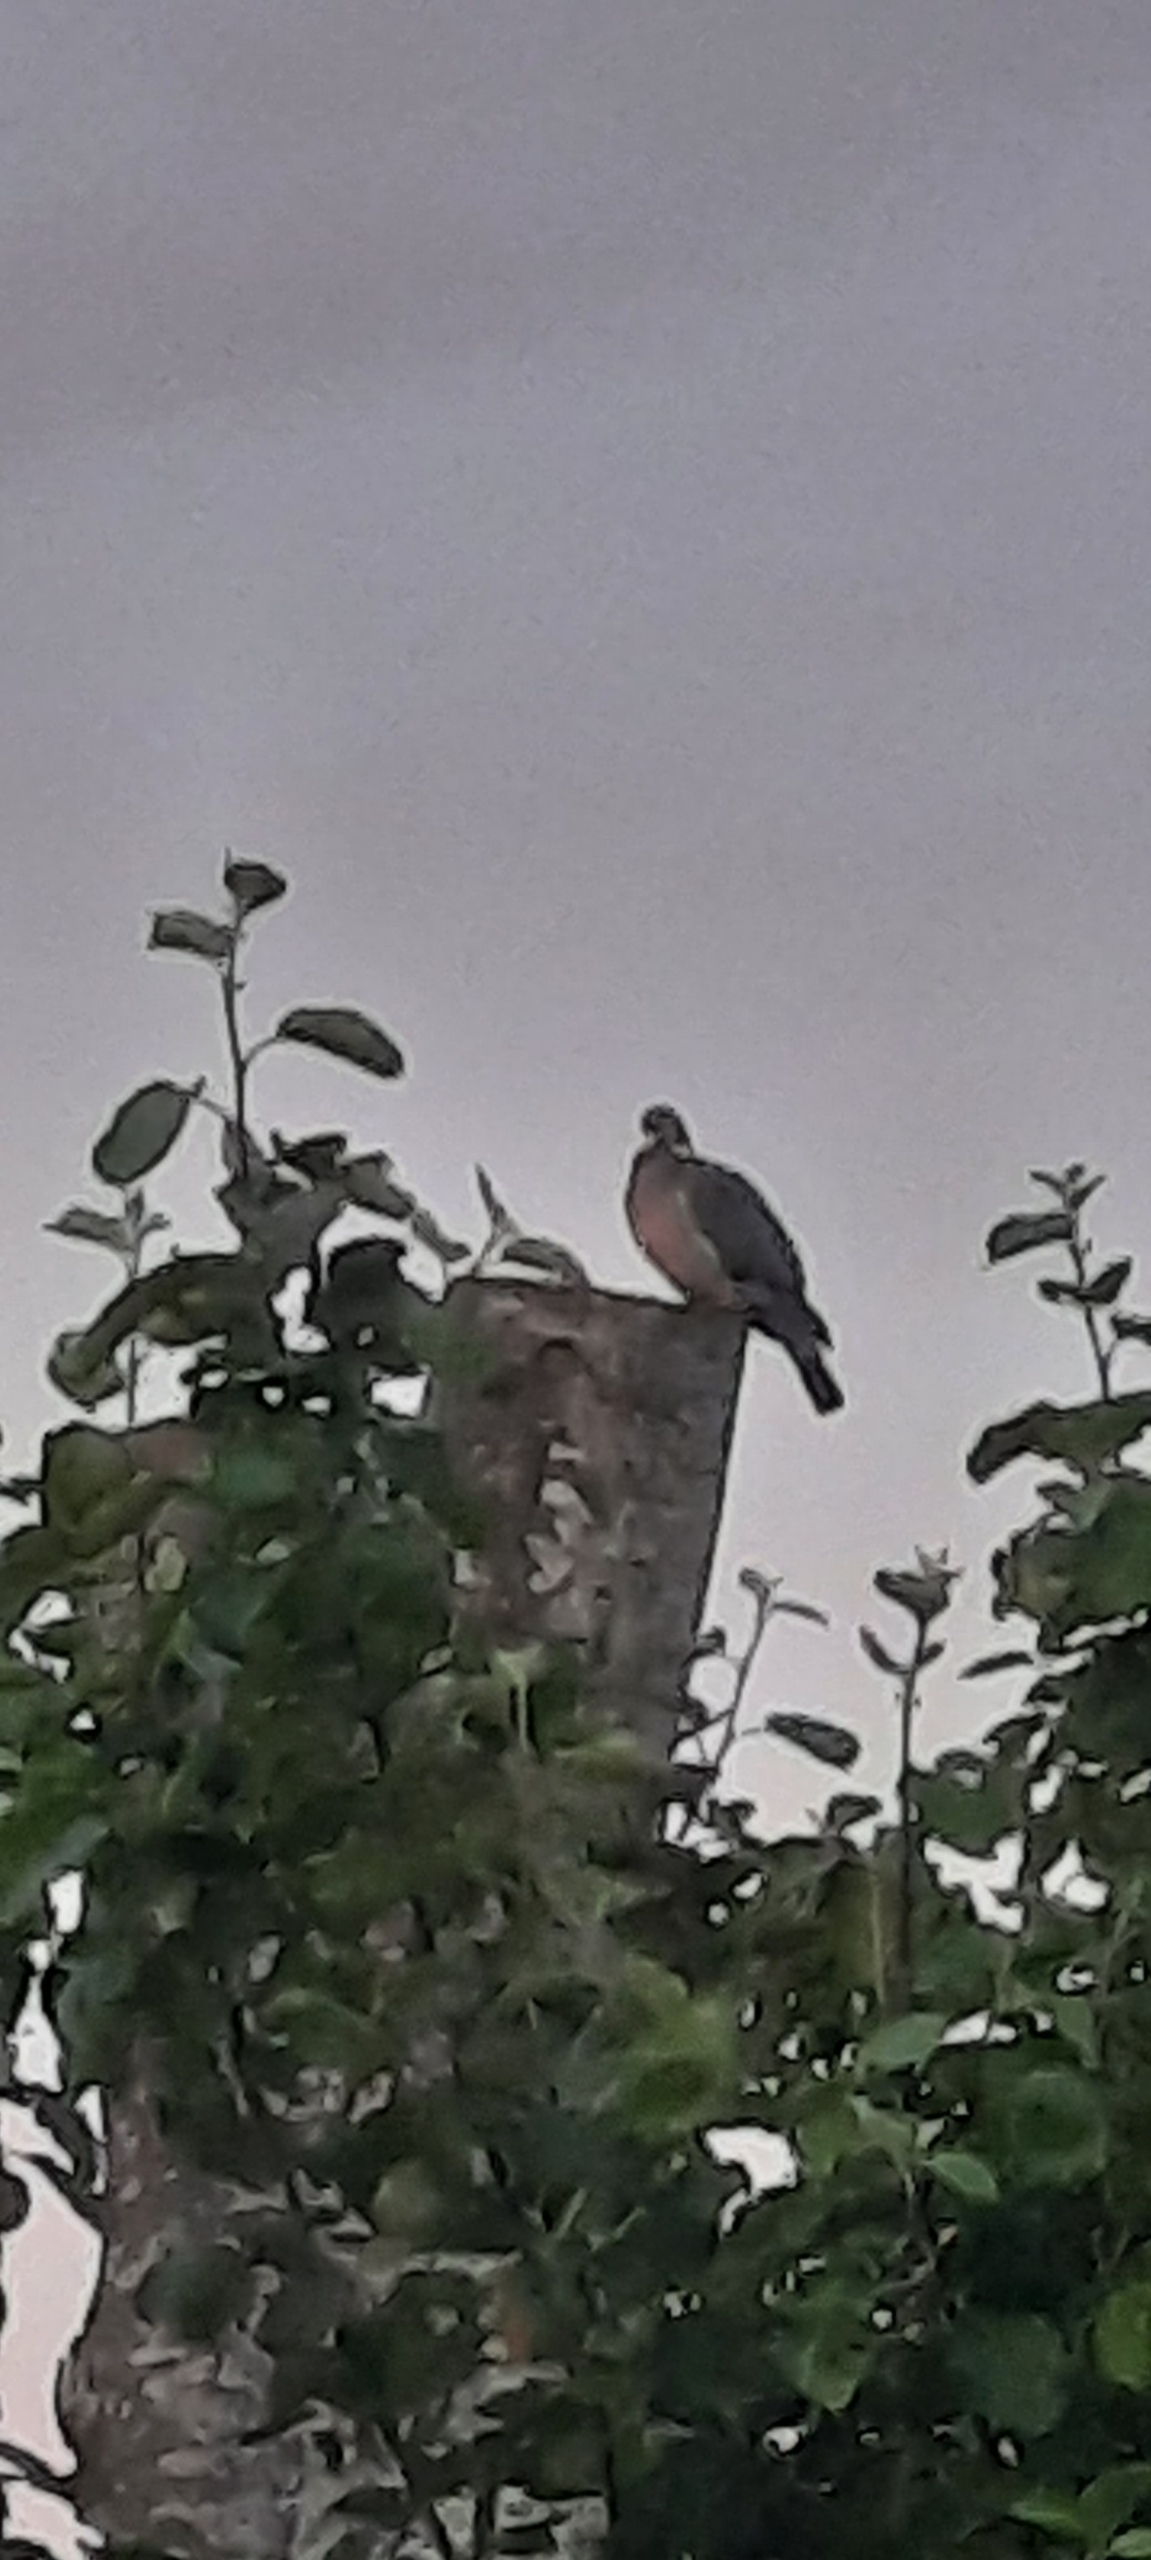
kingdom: Animalia
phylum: Chordata
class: Aves
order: Columbiformes
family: Columbidae
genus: Columba
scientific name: Columba palumbus
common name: Ringdue
